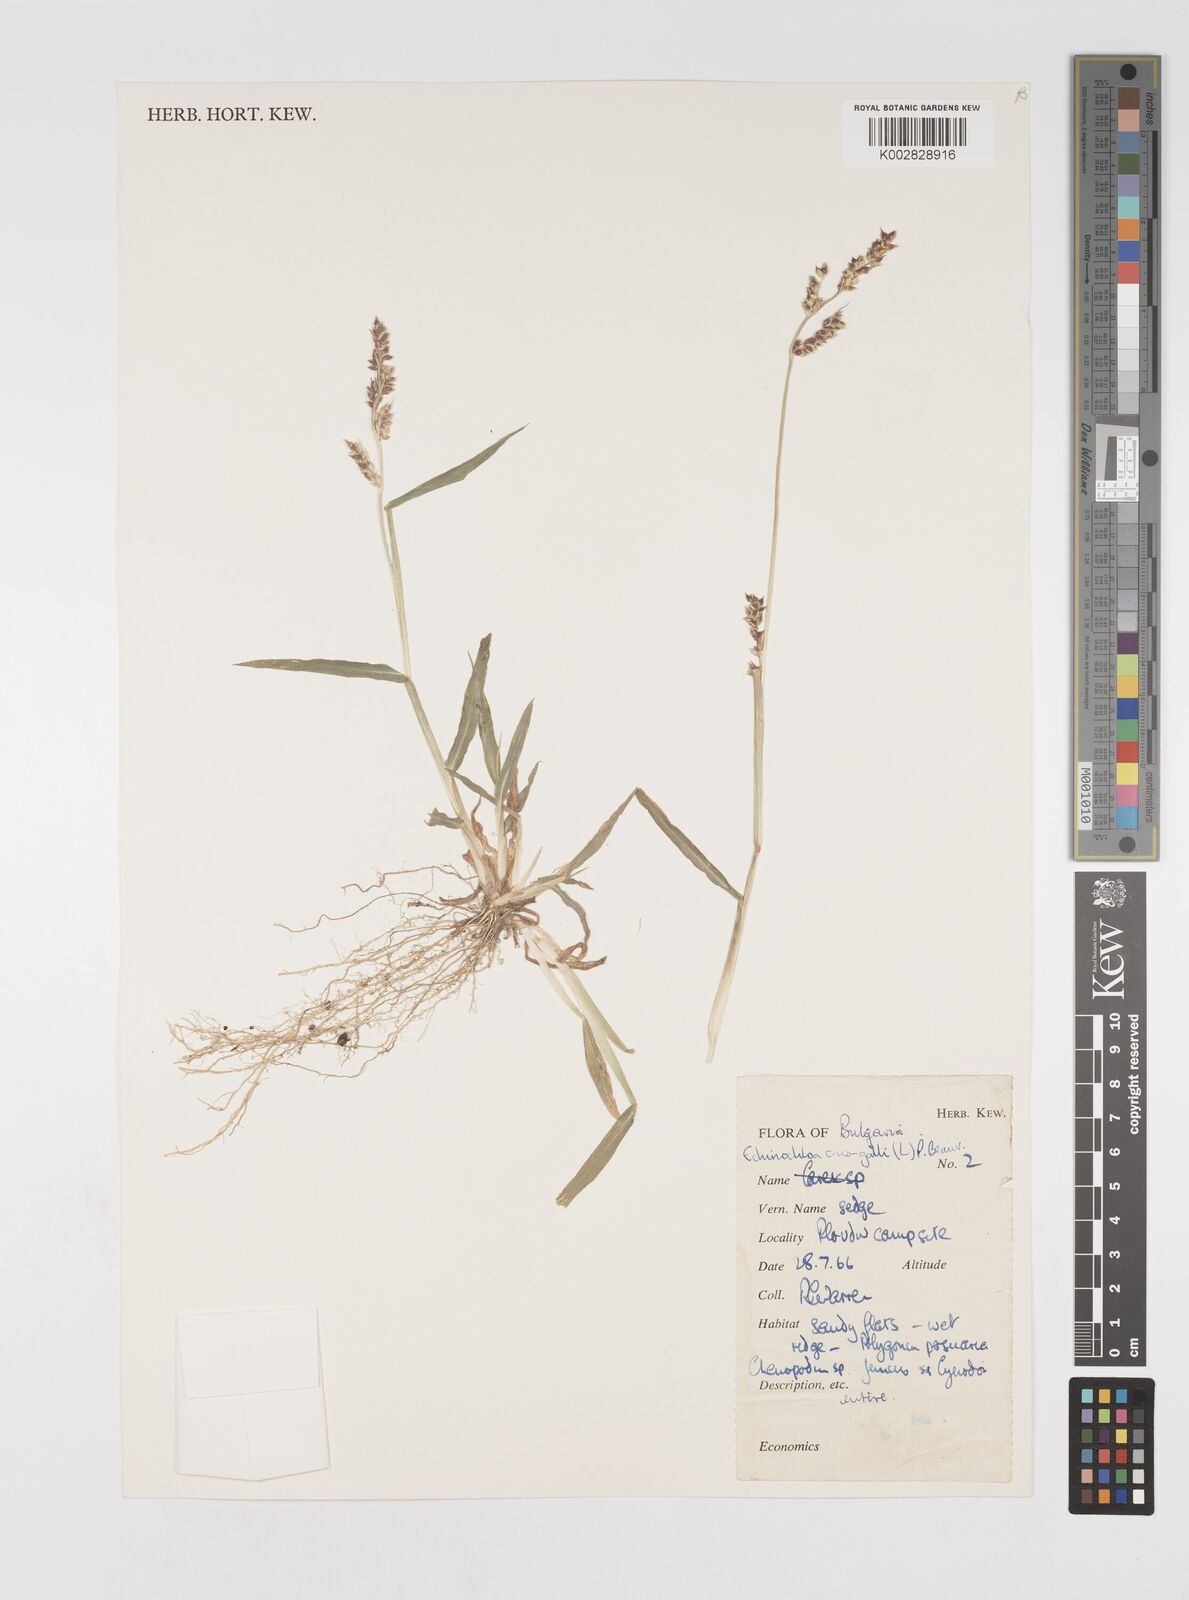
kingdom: Plantae
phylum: Tracheophyta
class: Liliopsida
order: Poales
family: Poaceae
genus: Echinochloa
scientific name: Echinochloa crus-galli
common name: Cockspur
